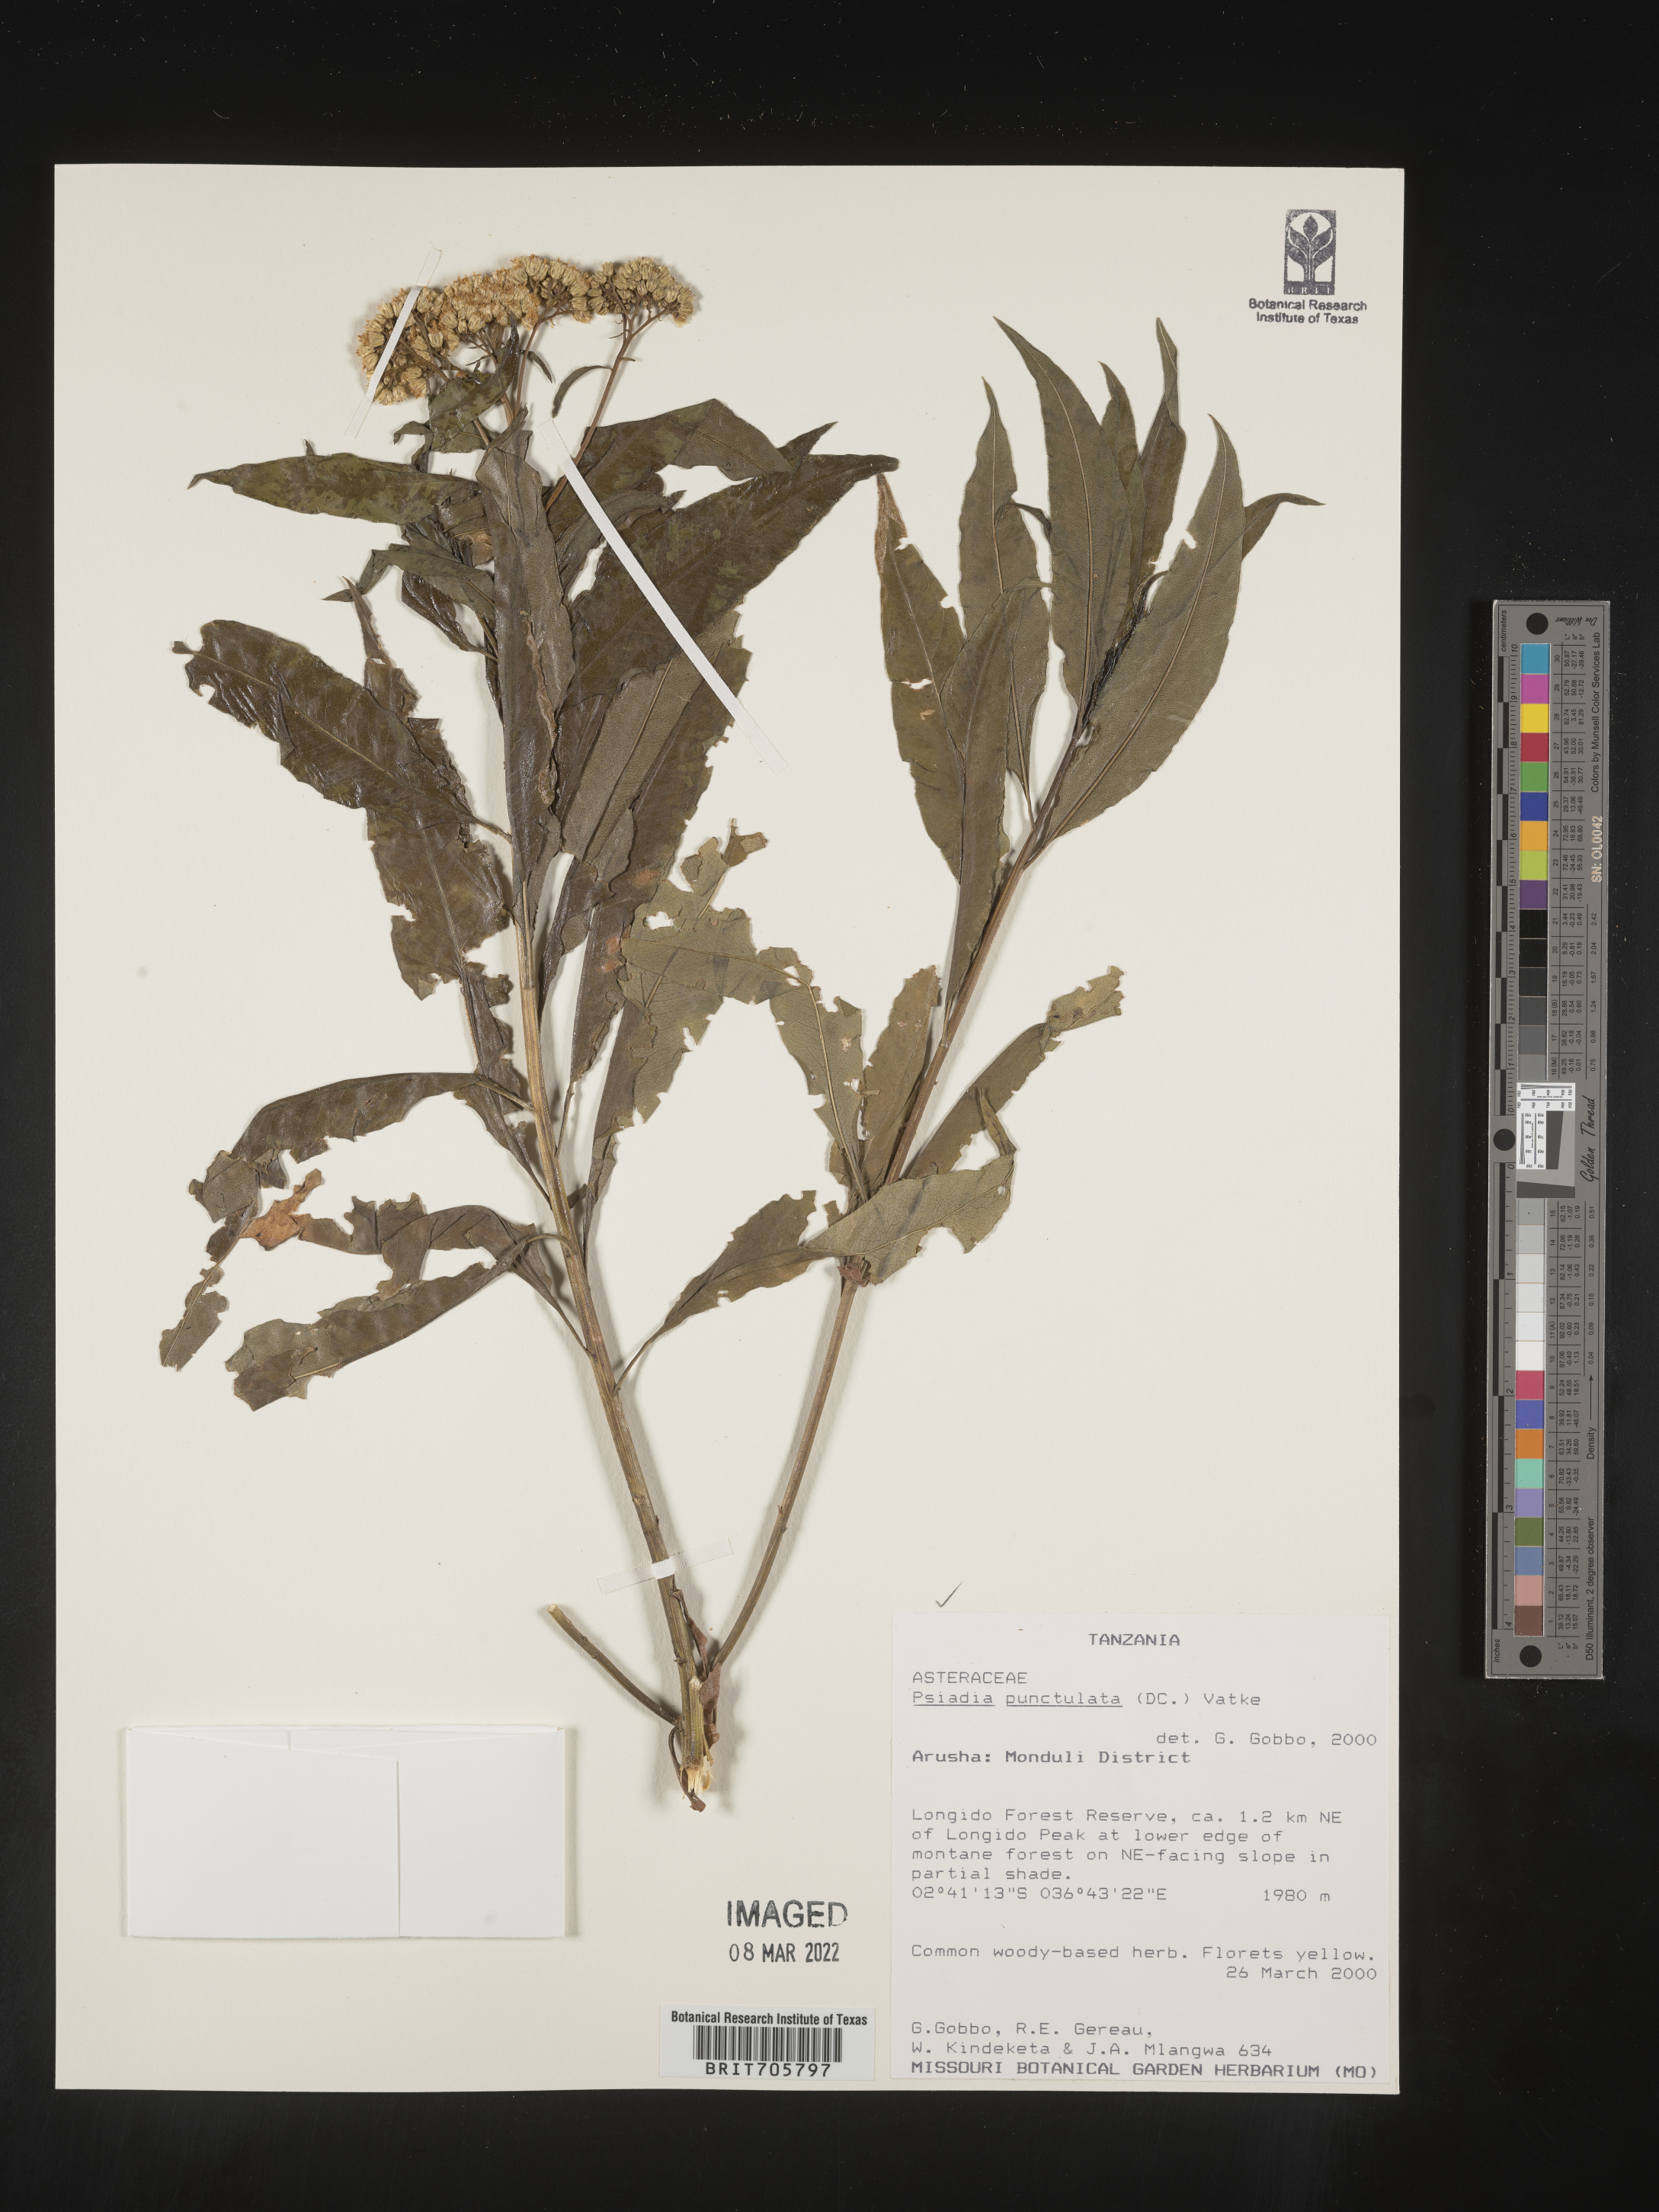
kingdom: Plantae
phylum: Tracheophyta
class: Magnoliopsida
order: Asterales
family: Asteraceae
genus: Psiadia
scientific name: Psiadia
